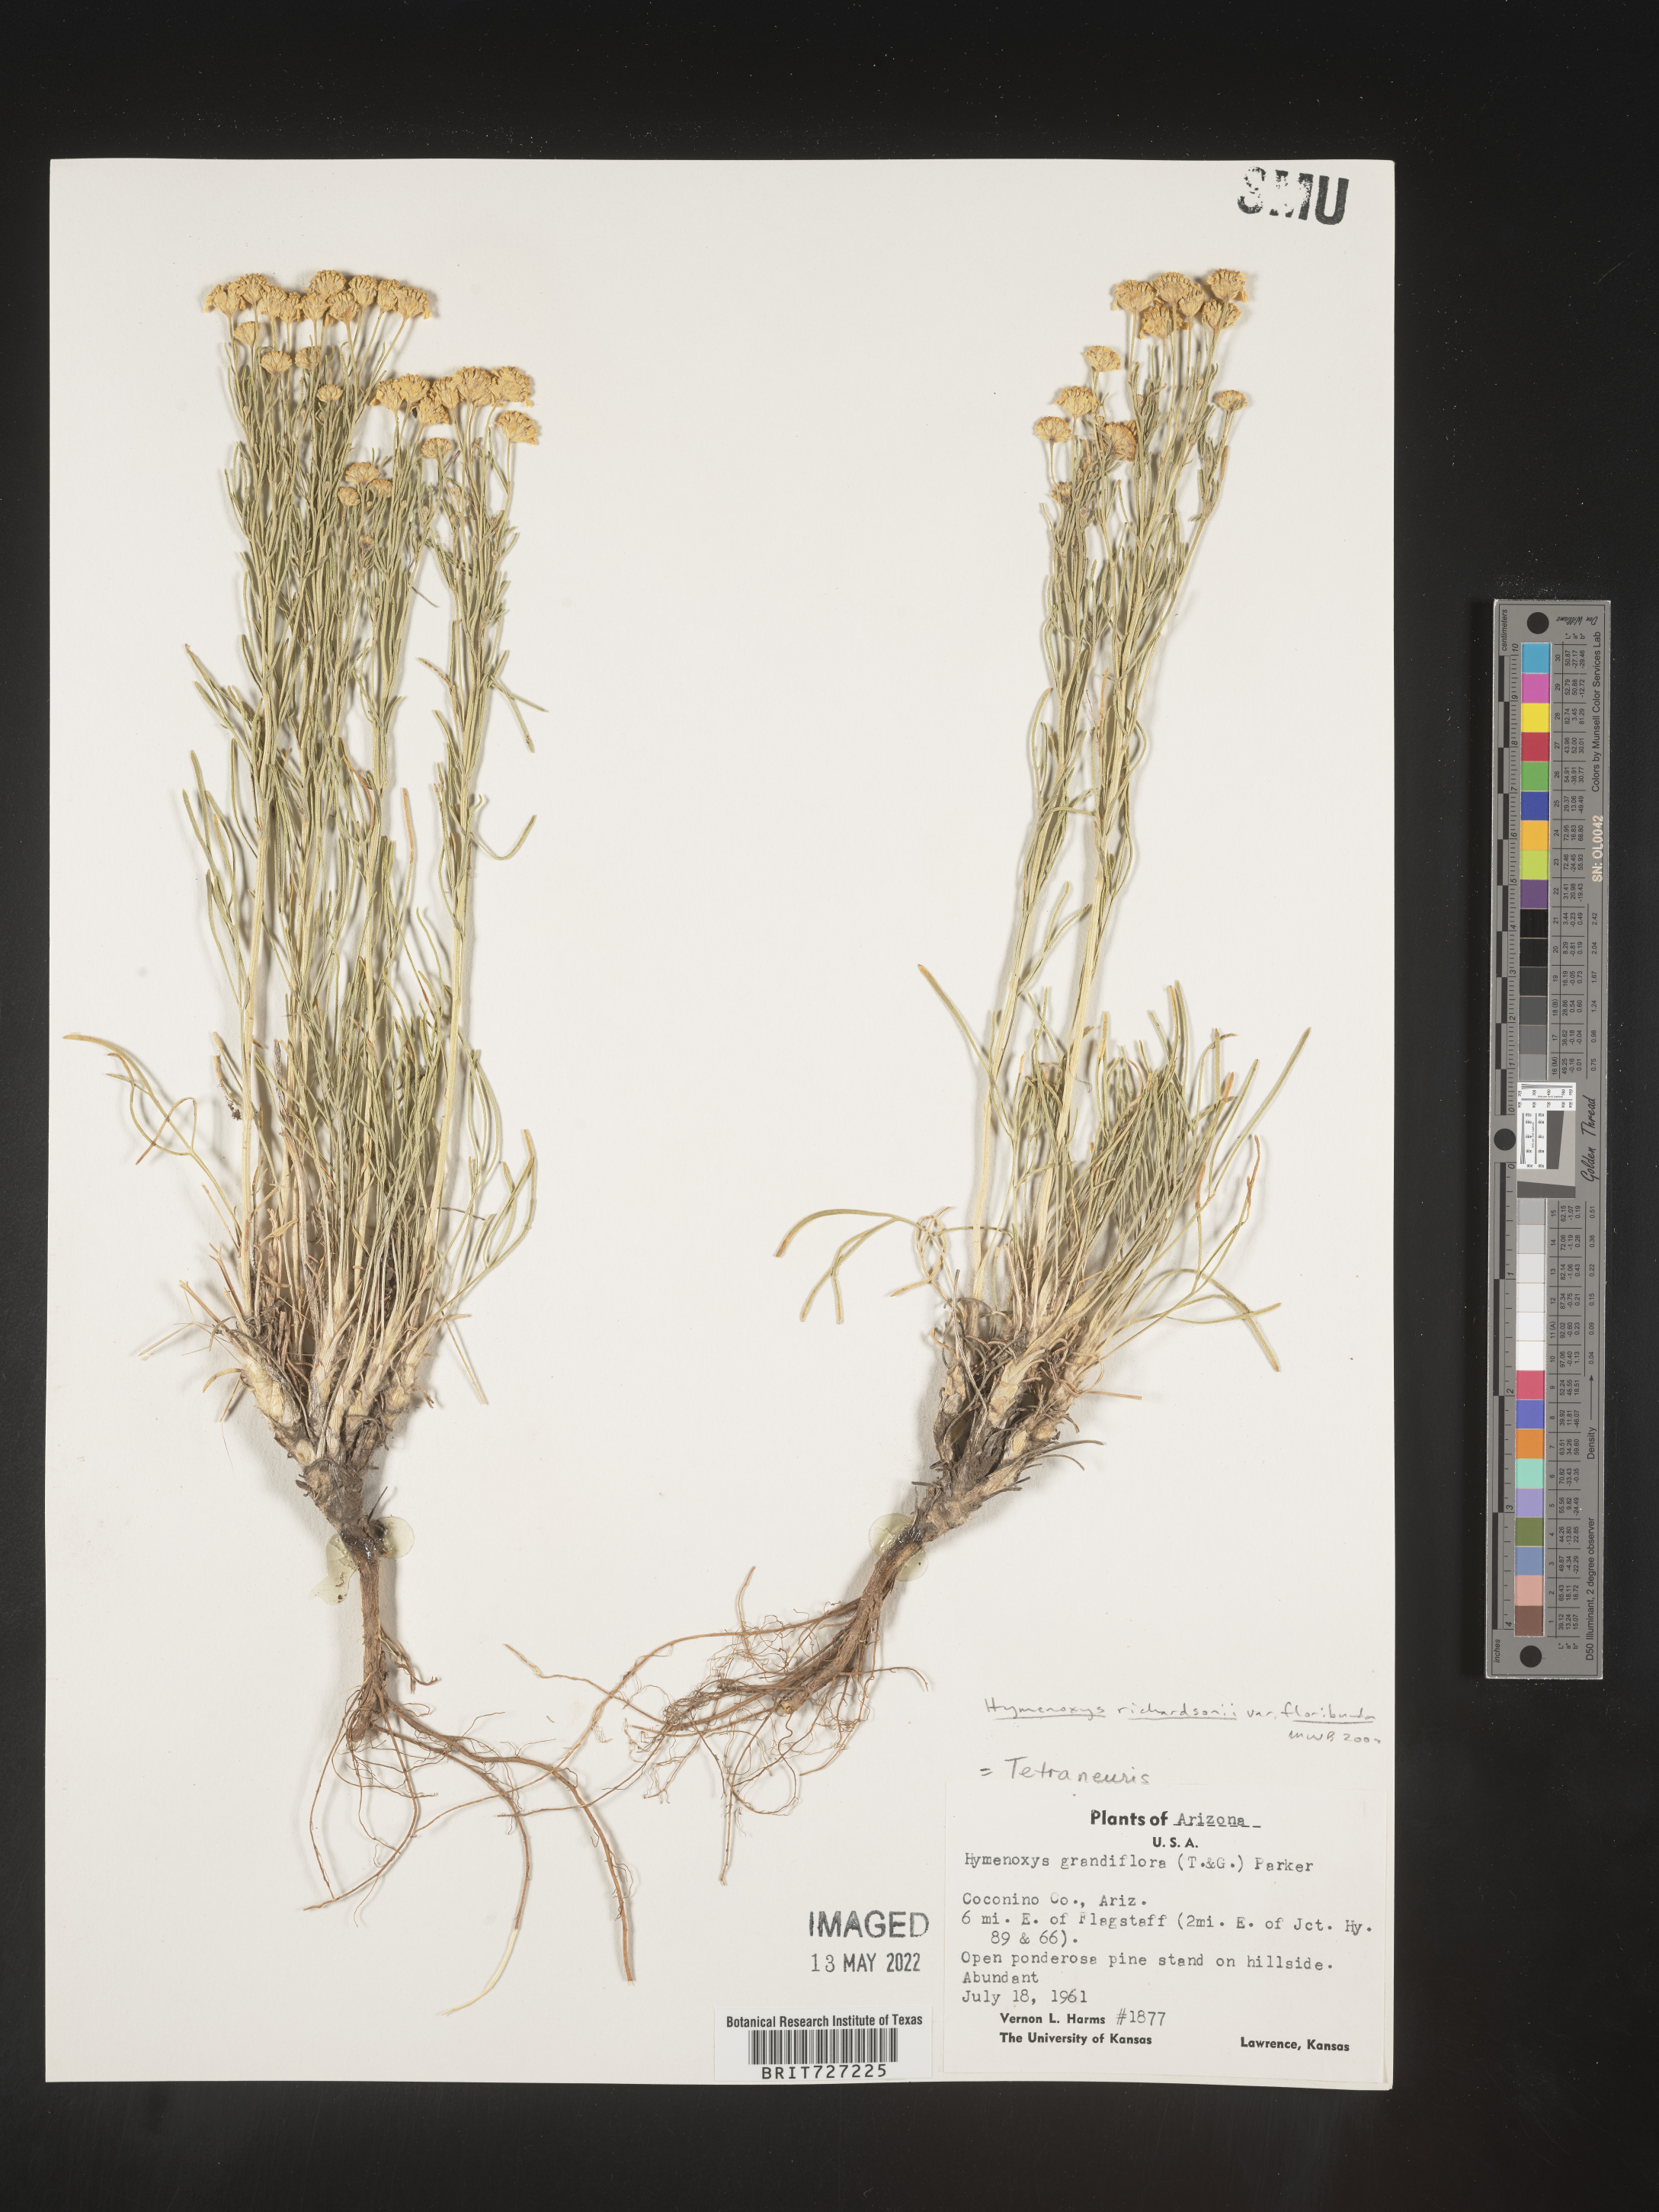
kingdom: Plantae
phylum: Tracheophyta
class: Magnoliopsida
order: Asterales
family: Asteraceae
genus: Hymenoxys
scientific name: Hymenoxys richardsonii
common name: Pingue rubberweed
